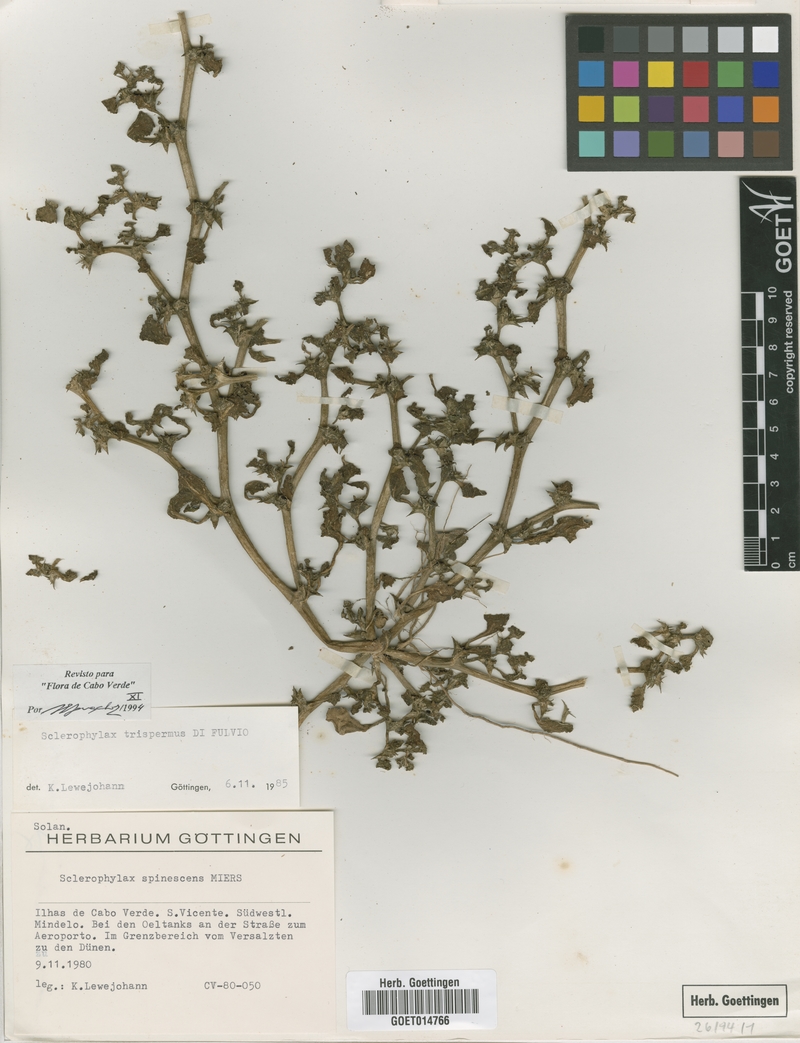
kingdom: Plantae
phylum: Tracheophyta
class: Magnoliopsida
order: Solanales
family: Solanaceae
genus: Sclerophylax
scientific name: Sclerophylax trispermus
